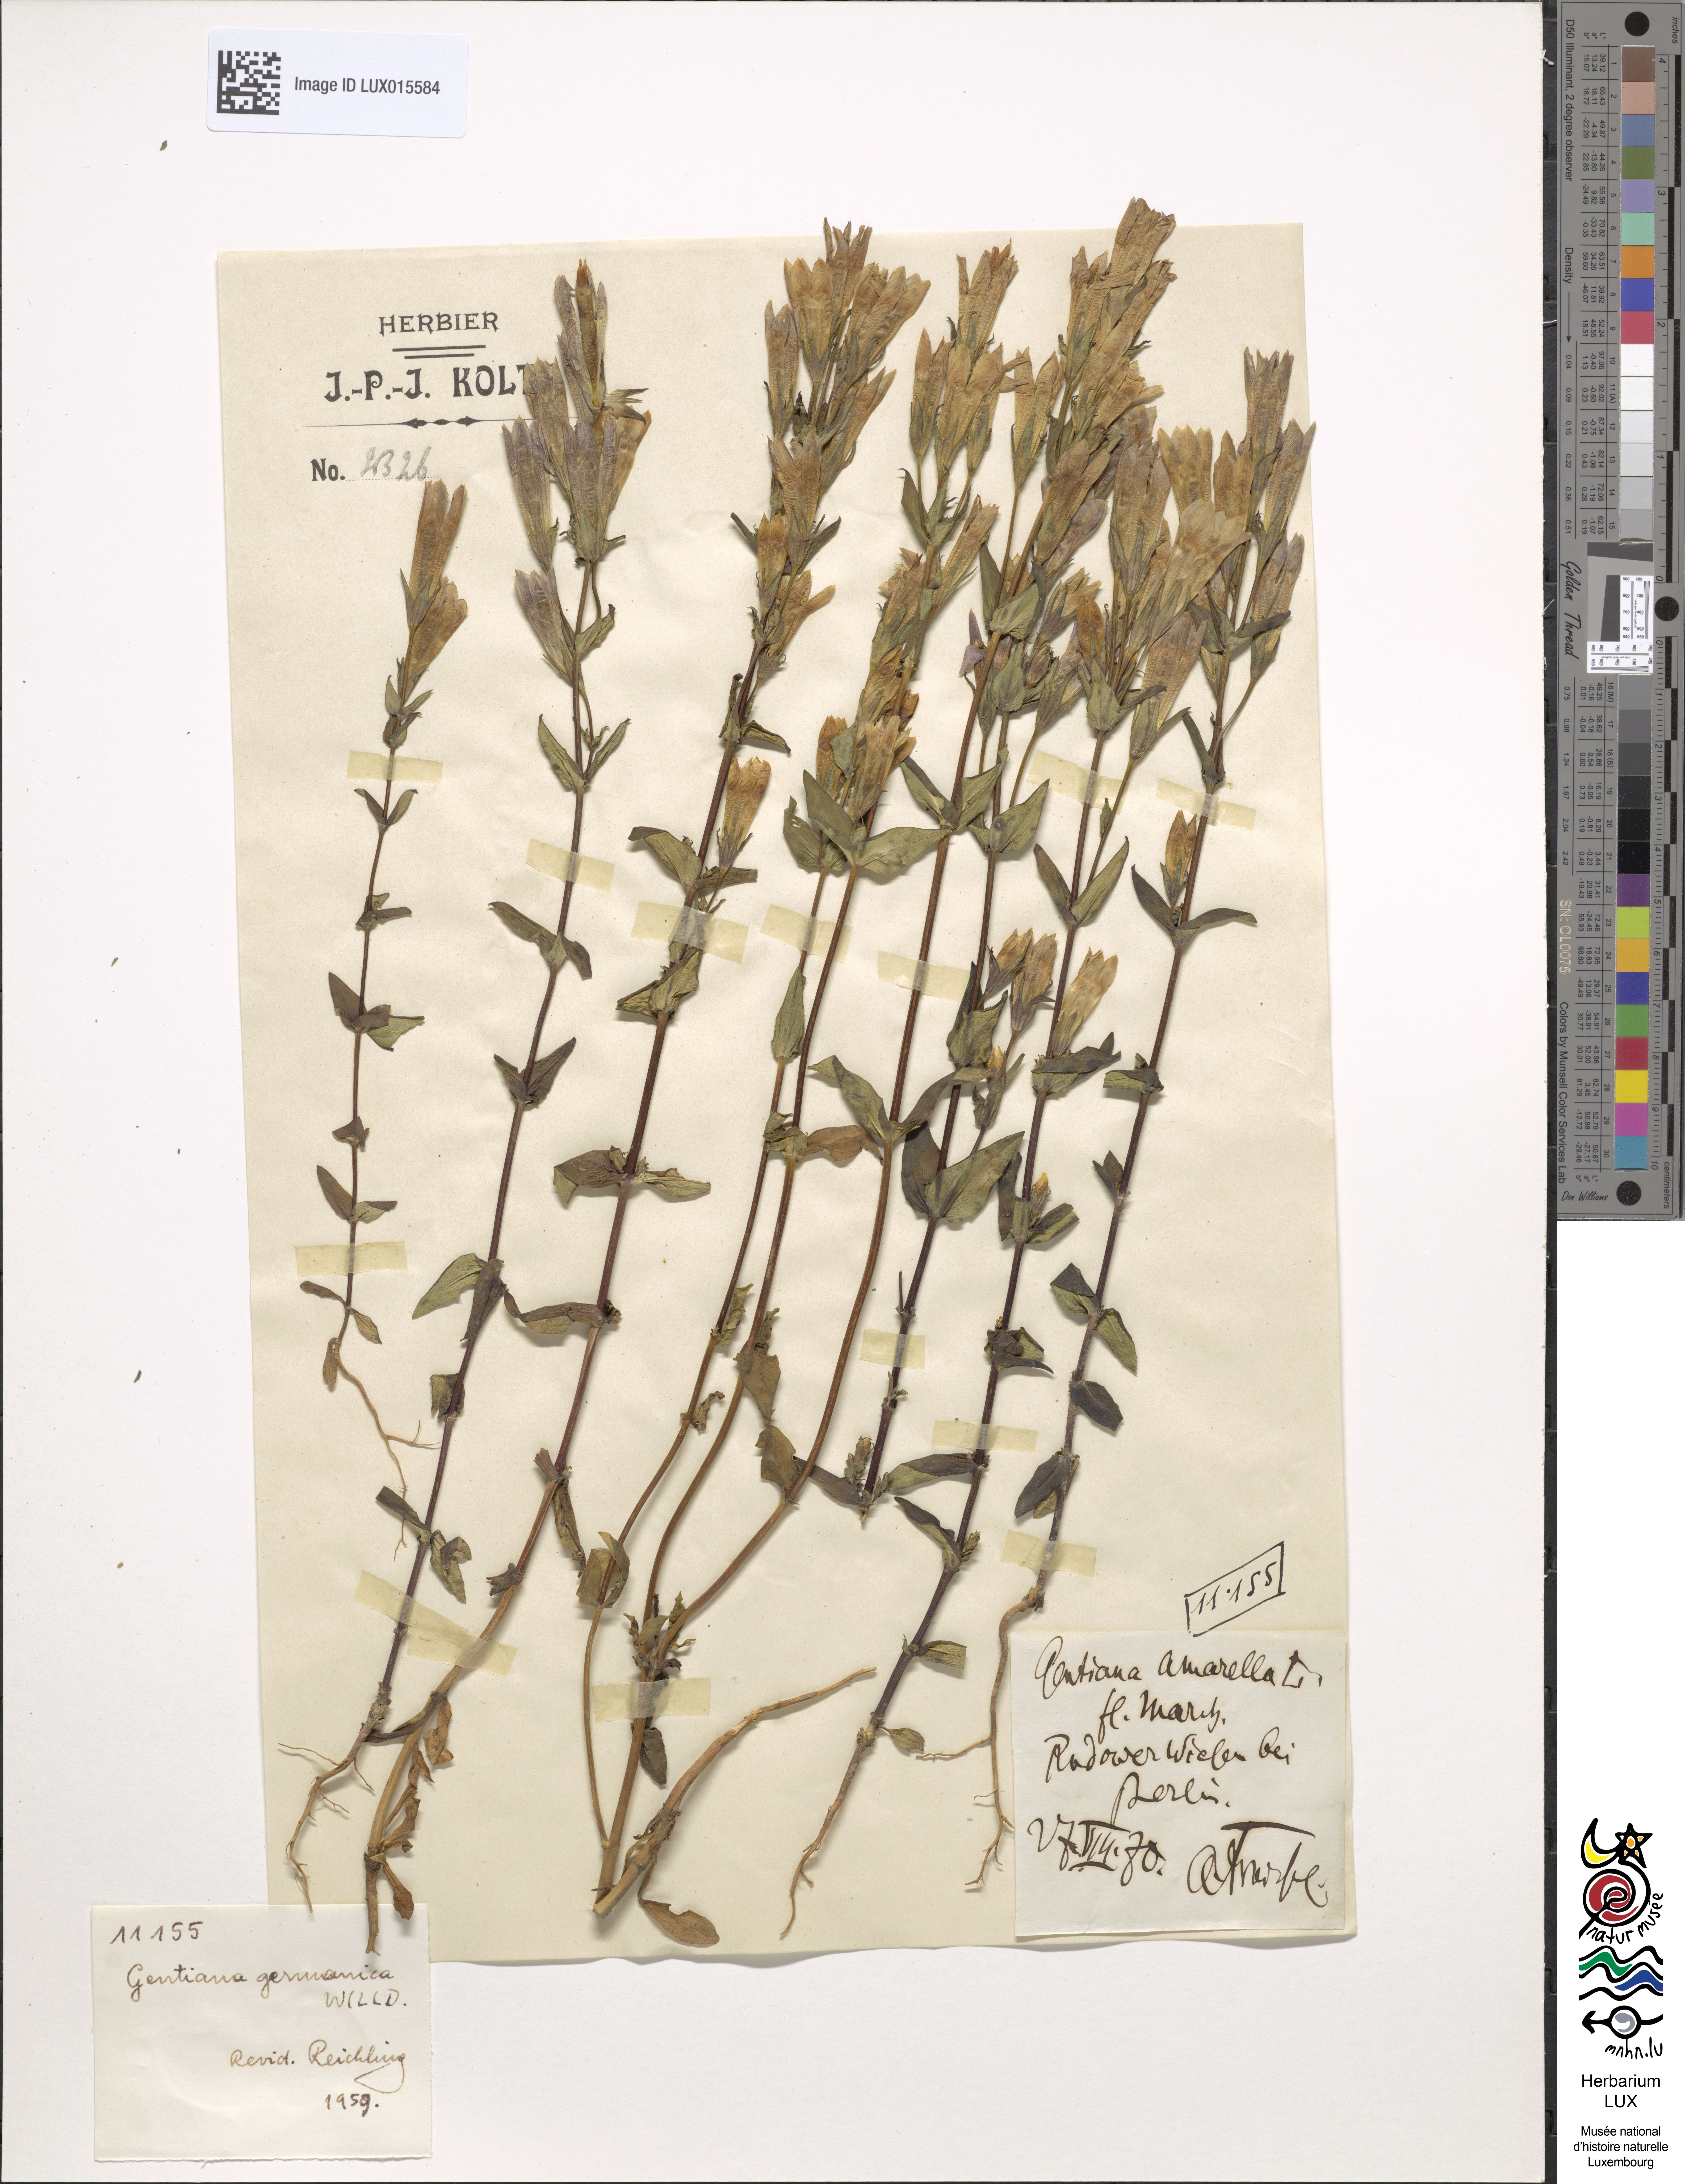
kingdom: Plantae
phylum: Tracheophyta
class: Magnoliopsida
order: Gentianales
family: Gentianaceae
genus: Gentianella
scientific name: Gentianella amarella
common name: Autumn gentian
